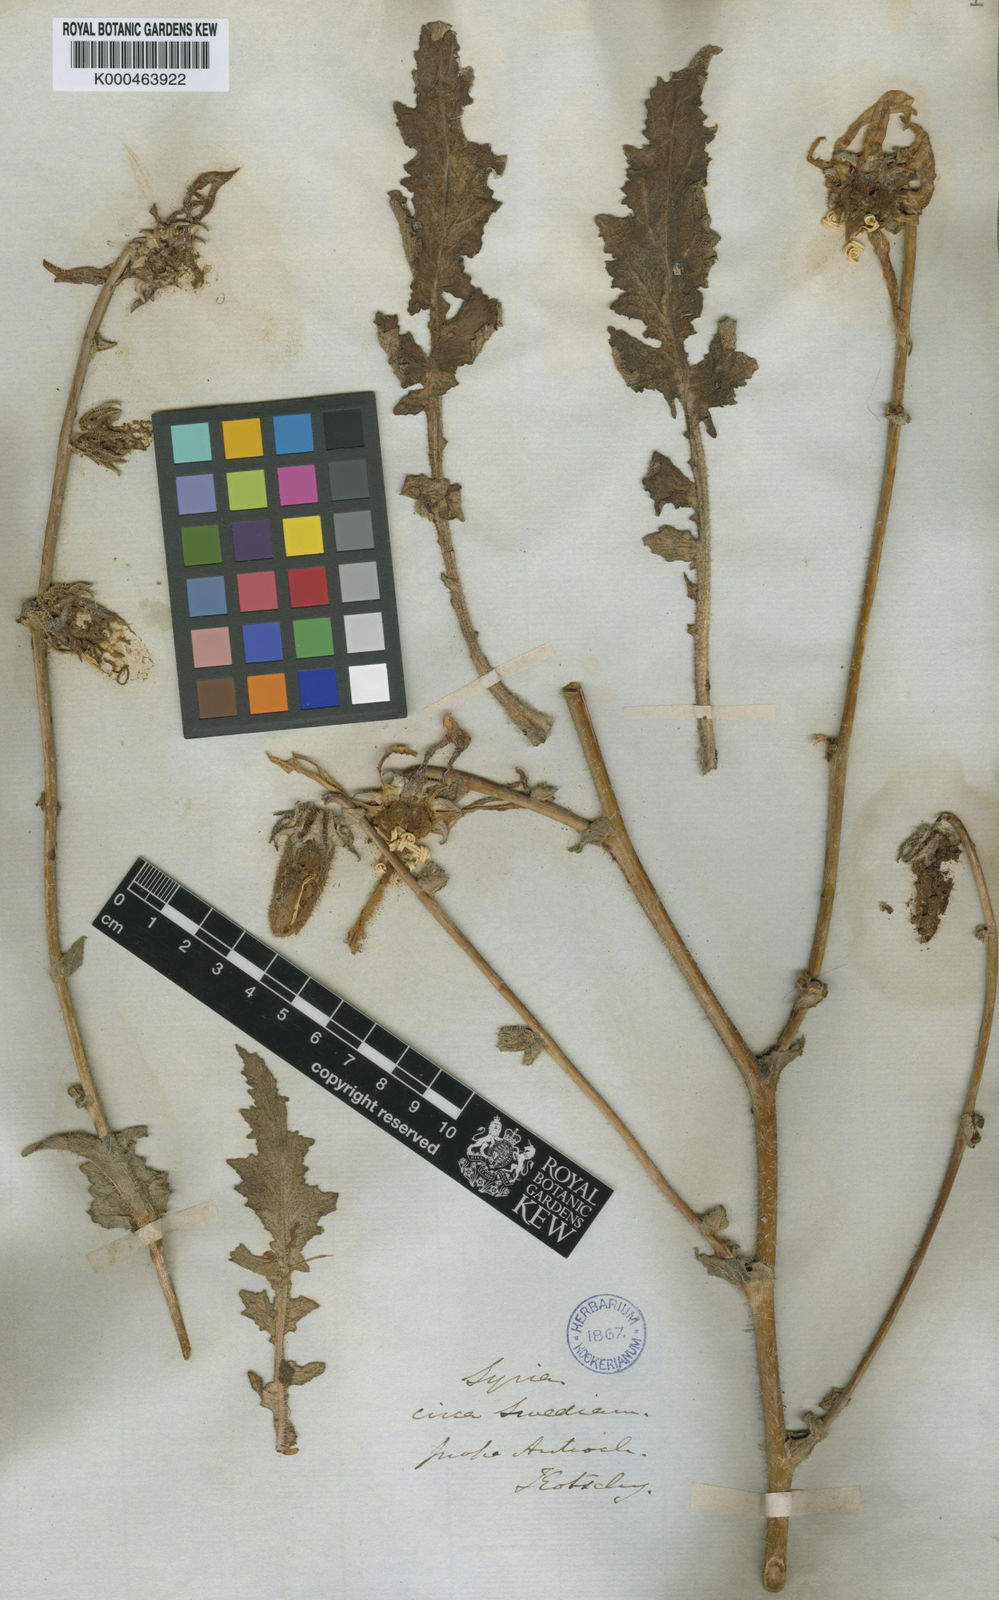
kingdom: Plantae
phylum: Tracheophyta
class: Magnoliopsida
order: Asterales
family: Campanulaceae
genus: Michauxia
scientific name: Michauxia
